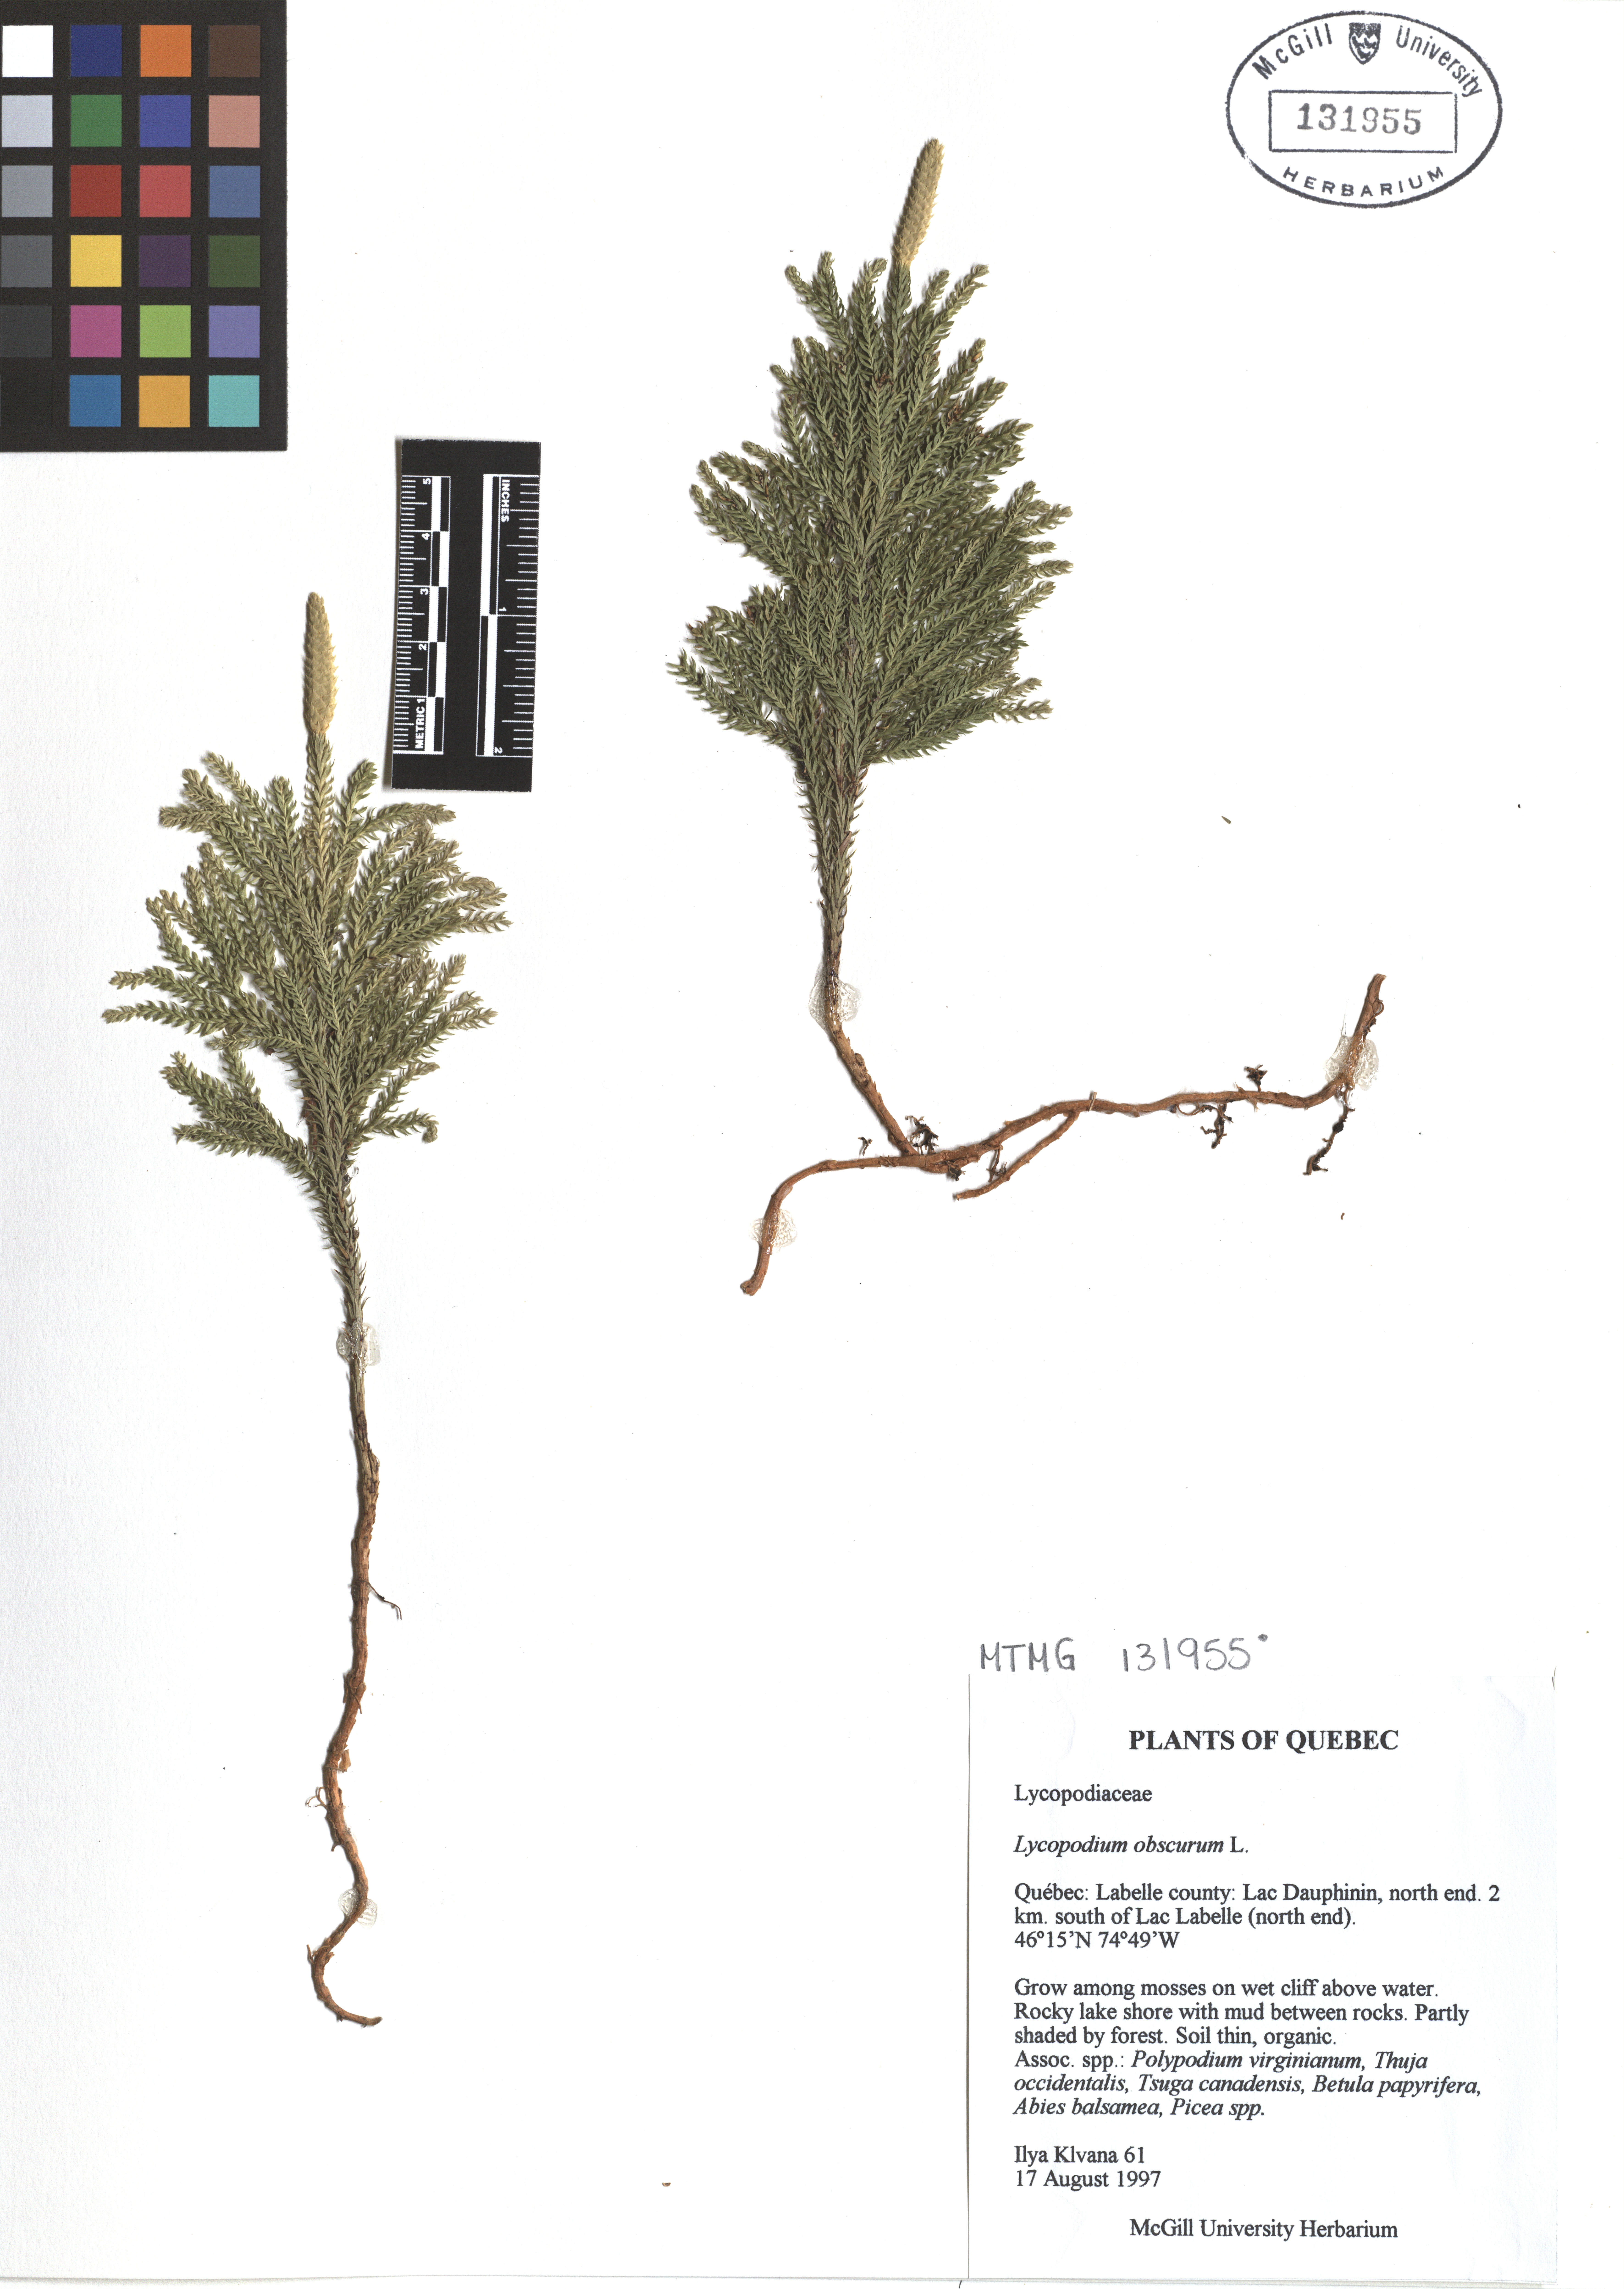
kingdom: Plantae
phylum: Tracheophyta
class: Lycopodiopsida
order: Lycopodiales
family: Lycopodiaceae
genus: Dendrolycopodium
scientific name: Dendrolycopodium obscurum
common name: Common ground-pine
